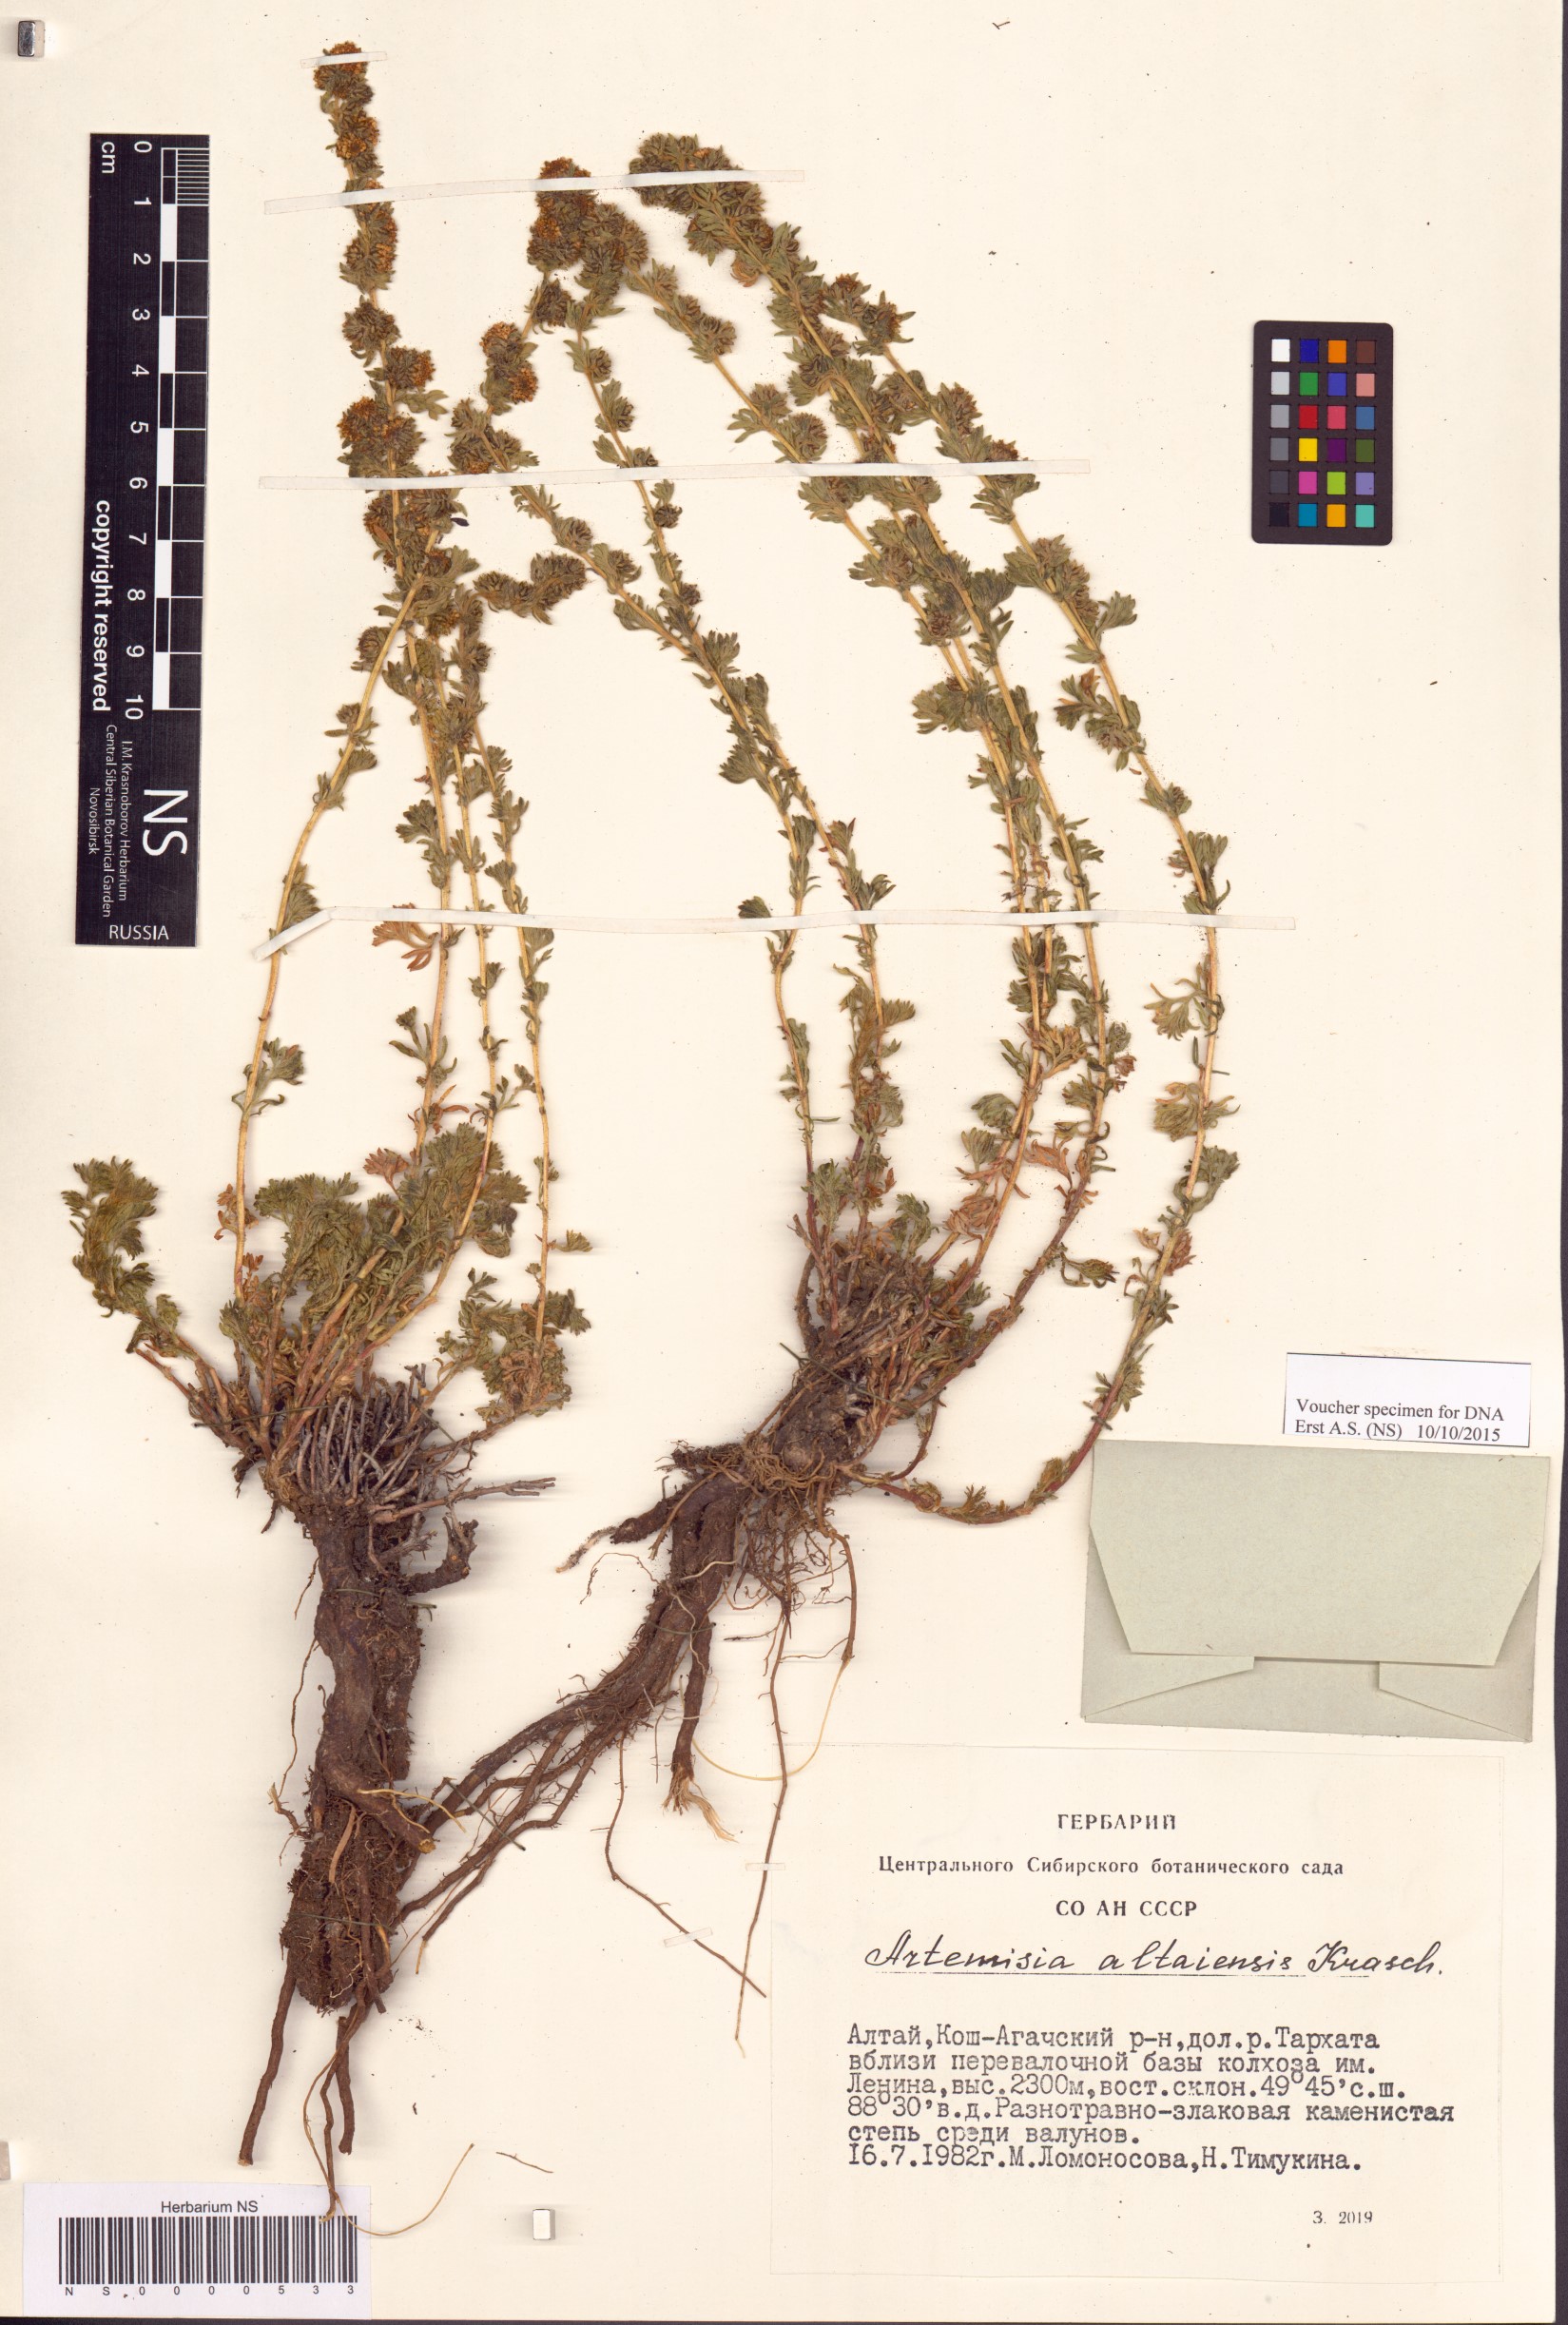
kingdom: Plantae
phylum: Tracheophyta
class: Magnoliopsida
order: Asterales
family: Asteraceae
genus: Artemisia
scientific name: Artemisia obtusiloba
